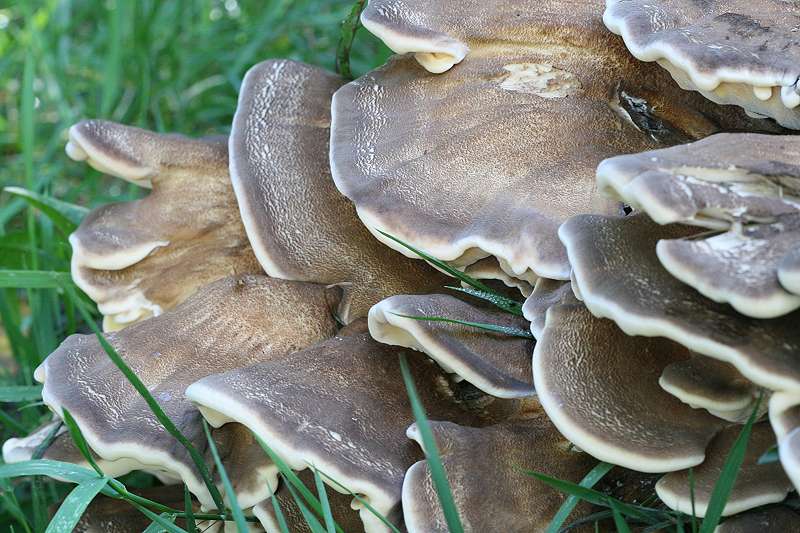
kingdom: Fungi
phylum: Basidiomycota
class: Agaricomycetes
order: Polyporales
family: Meripilaceae
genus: Meripilus
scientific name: Meripilus giganteus
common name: kæmpeporesvamp
